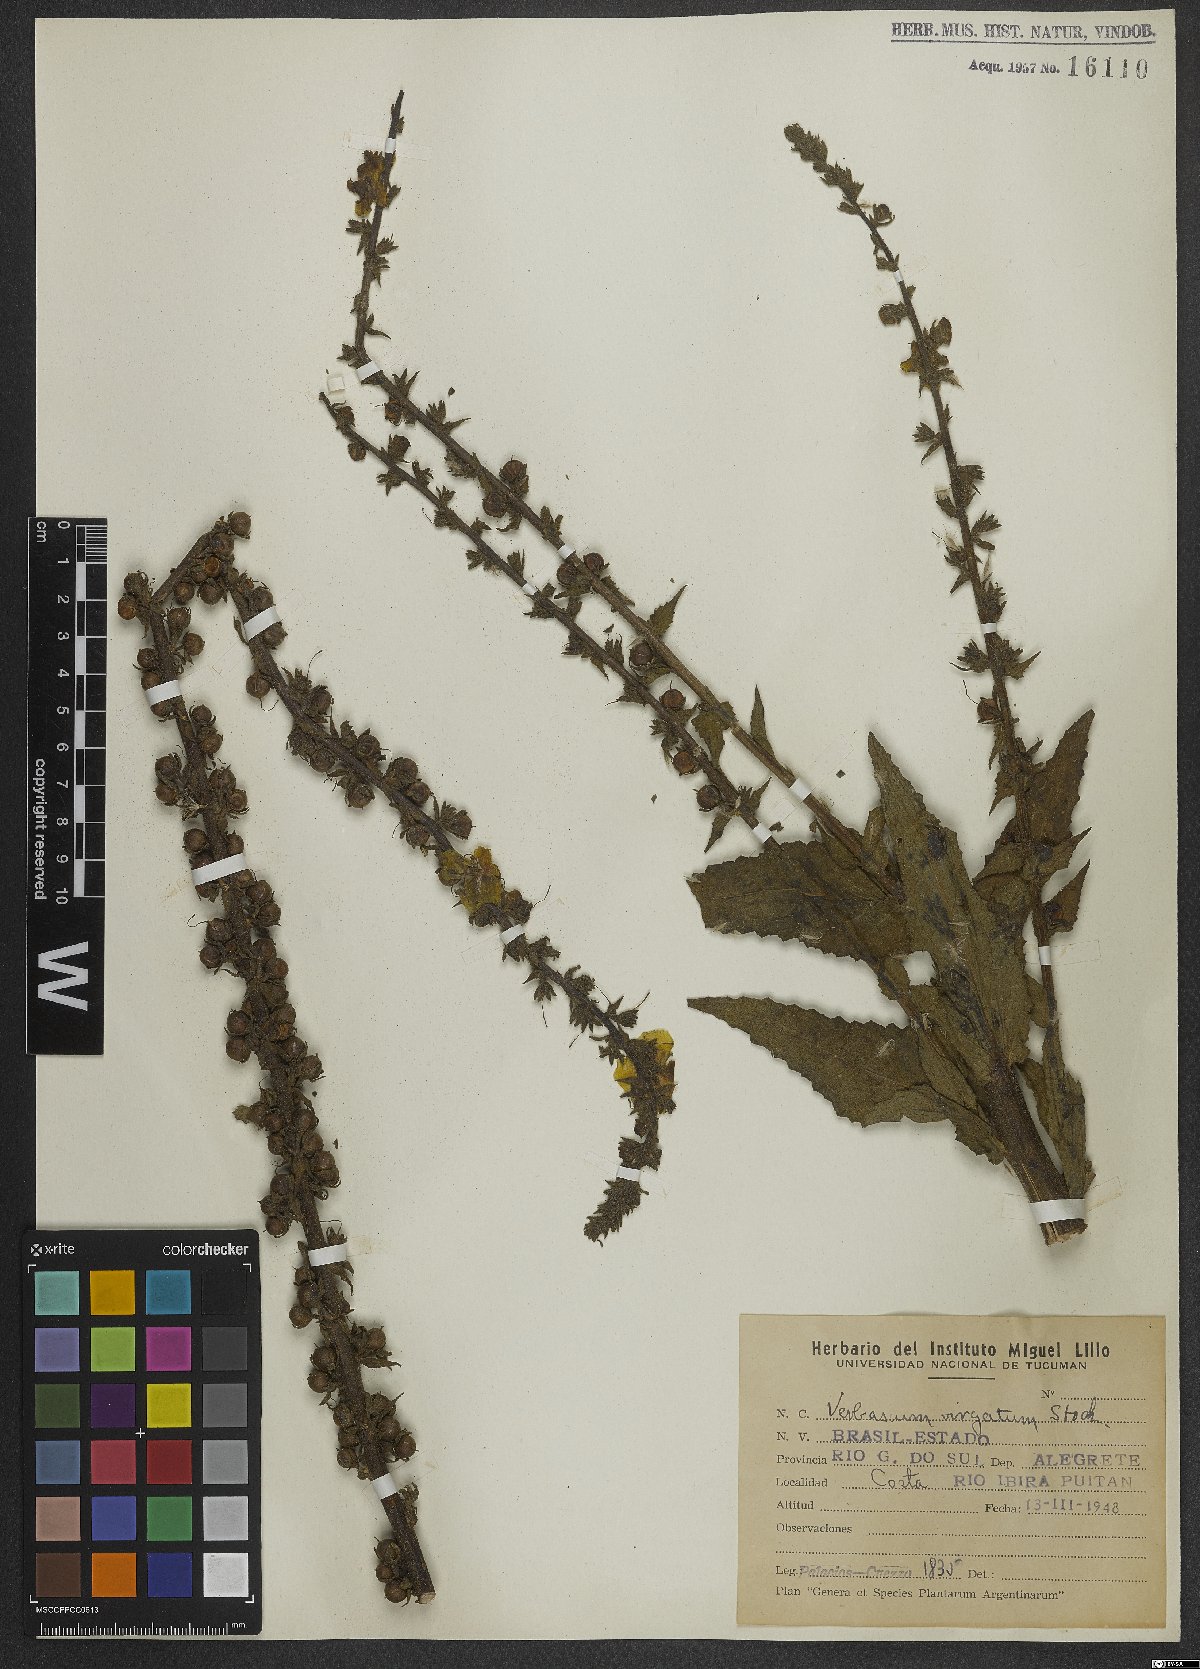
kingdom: Plantae
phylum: Tracheophyta
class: Magnoliopsida
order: Lamiales
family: Scrophulariaceae
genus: Verbascum
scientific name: Verbascum virgatum
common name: Twiggy mullein
